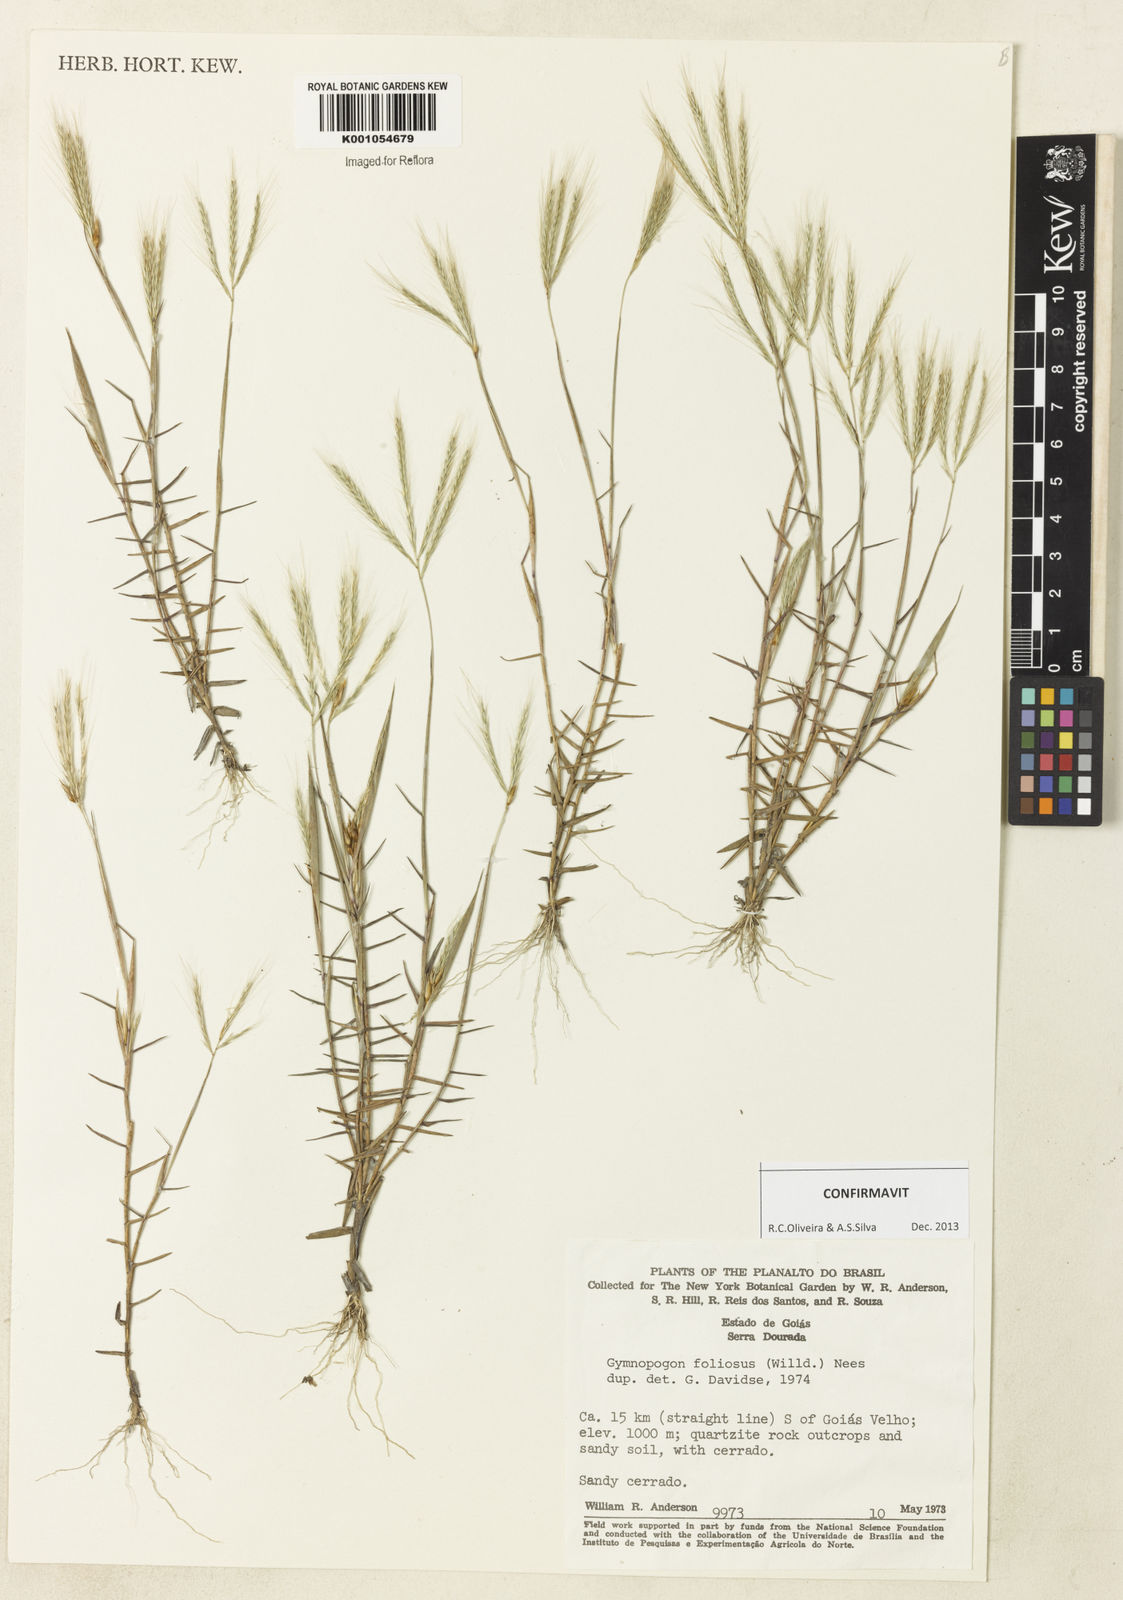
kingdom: Plantae
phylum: Tracheophyta
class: Liliopsida
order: Poales
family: Poaceae
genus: Gymnopogon
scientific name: Gymnopogon foliosus
